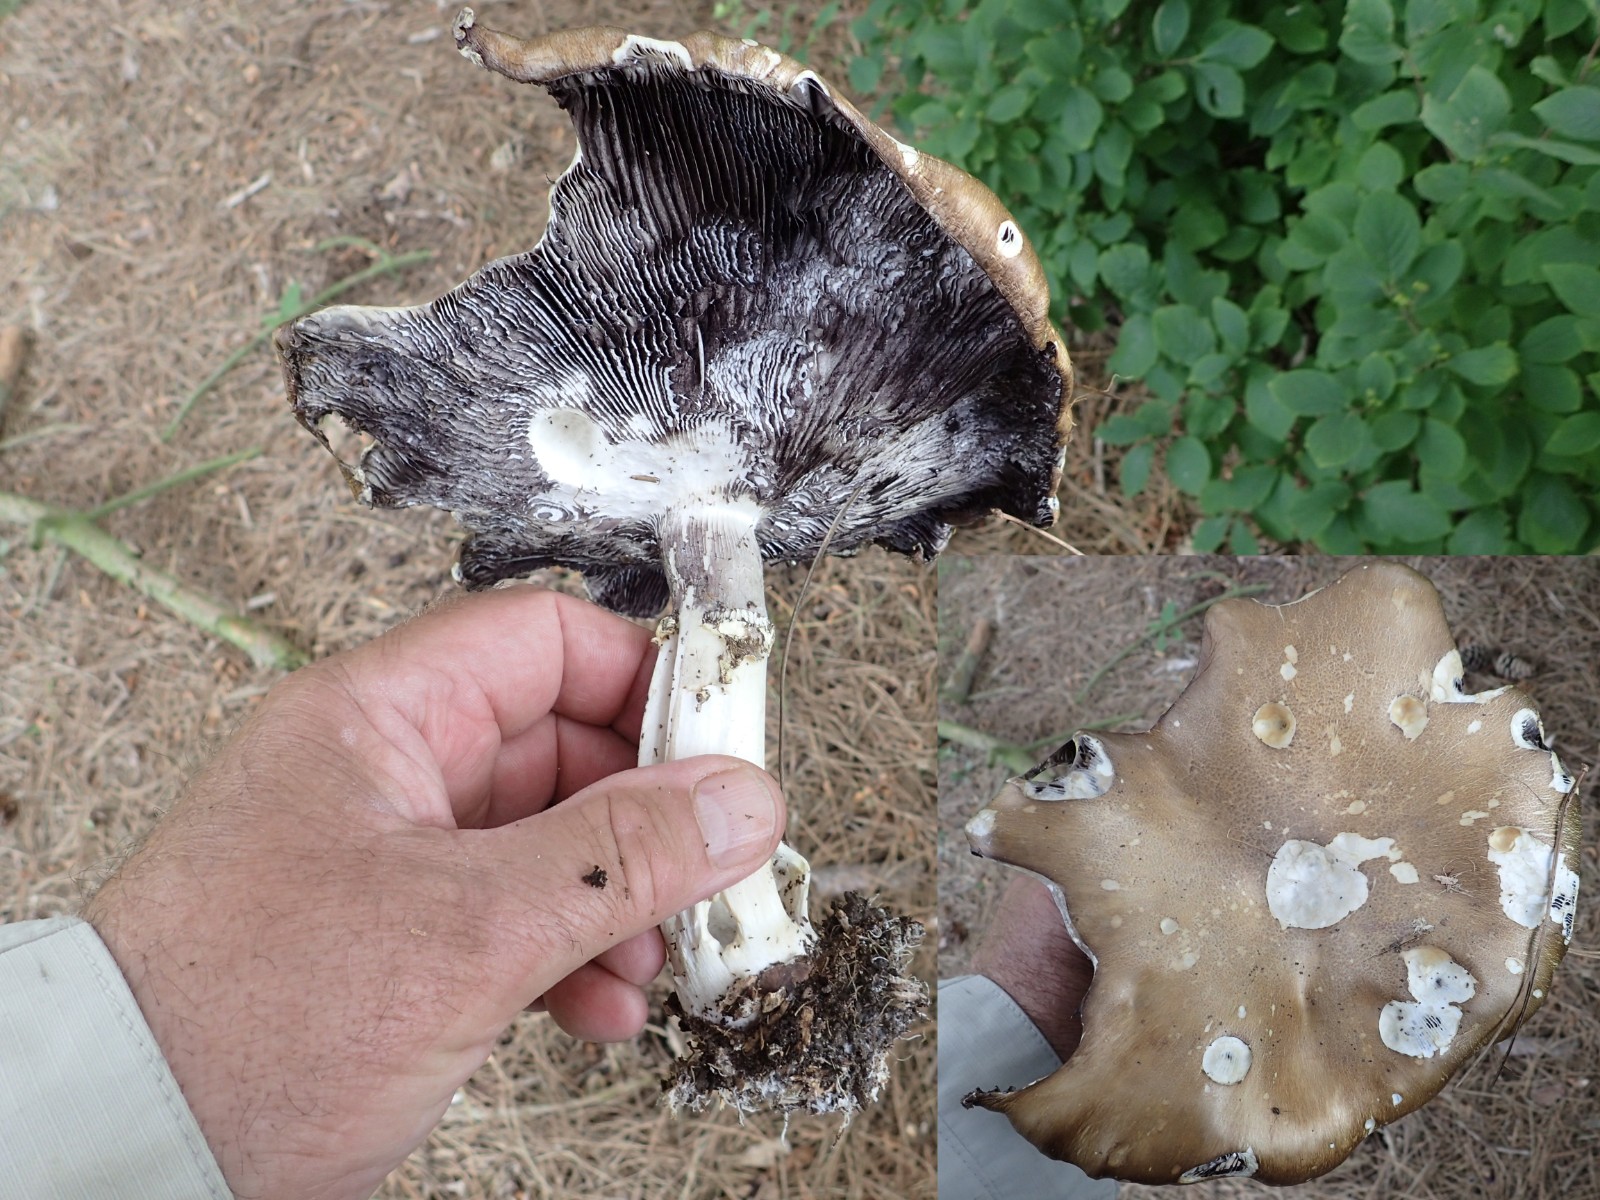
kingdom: Fungi
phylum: Basidiomycota
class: Agaricomycetes
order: Agaricales
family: Strophariaceae
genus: Stropharia
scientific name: Stropharia rugosoannulata
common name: rødbrun bredblad
